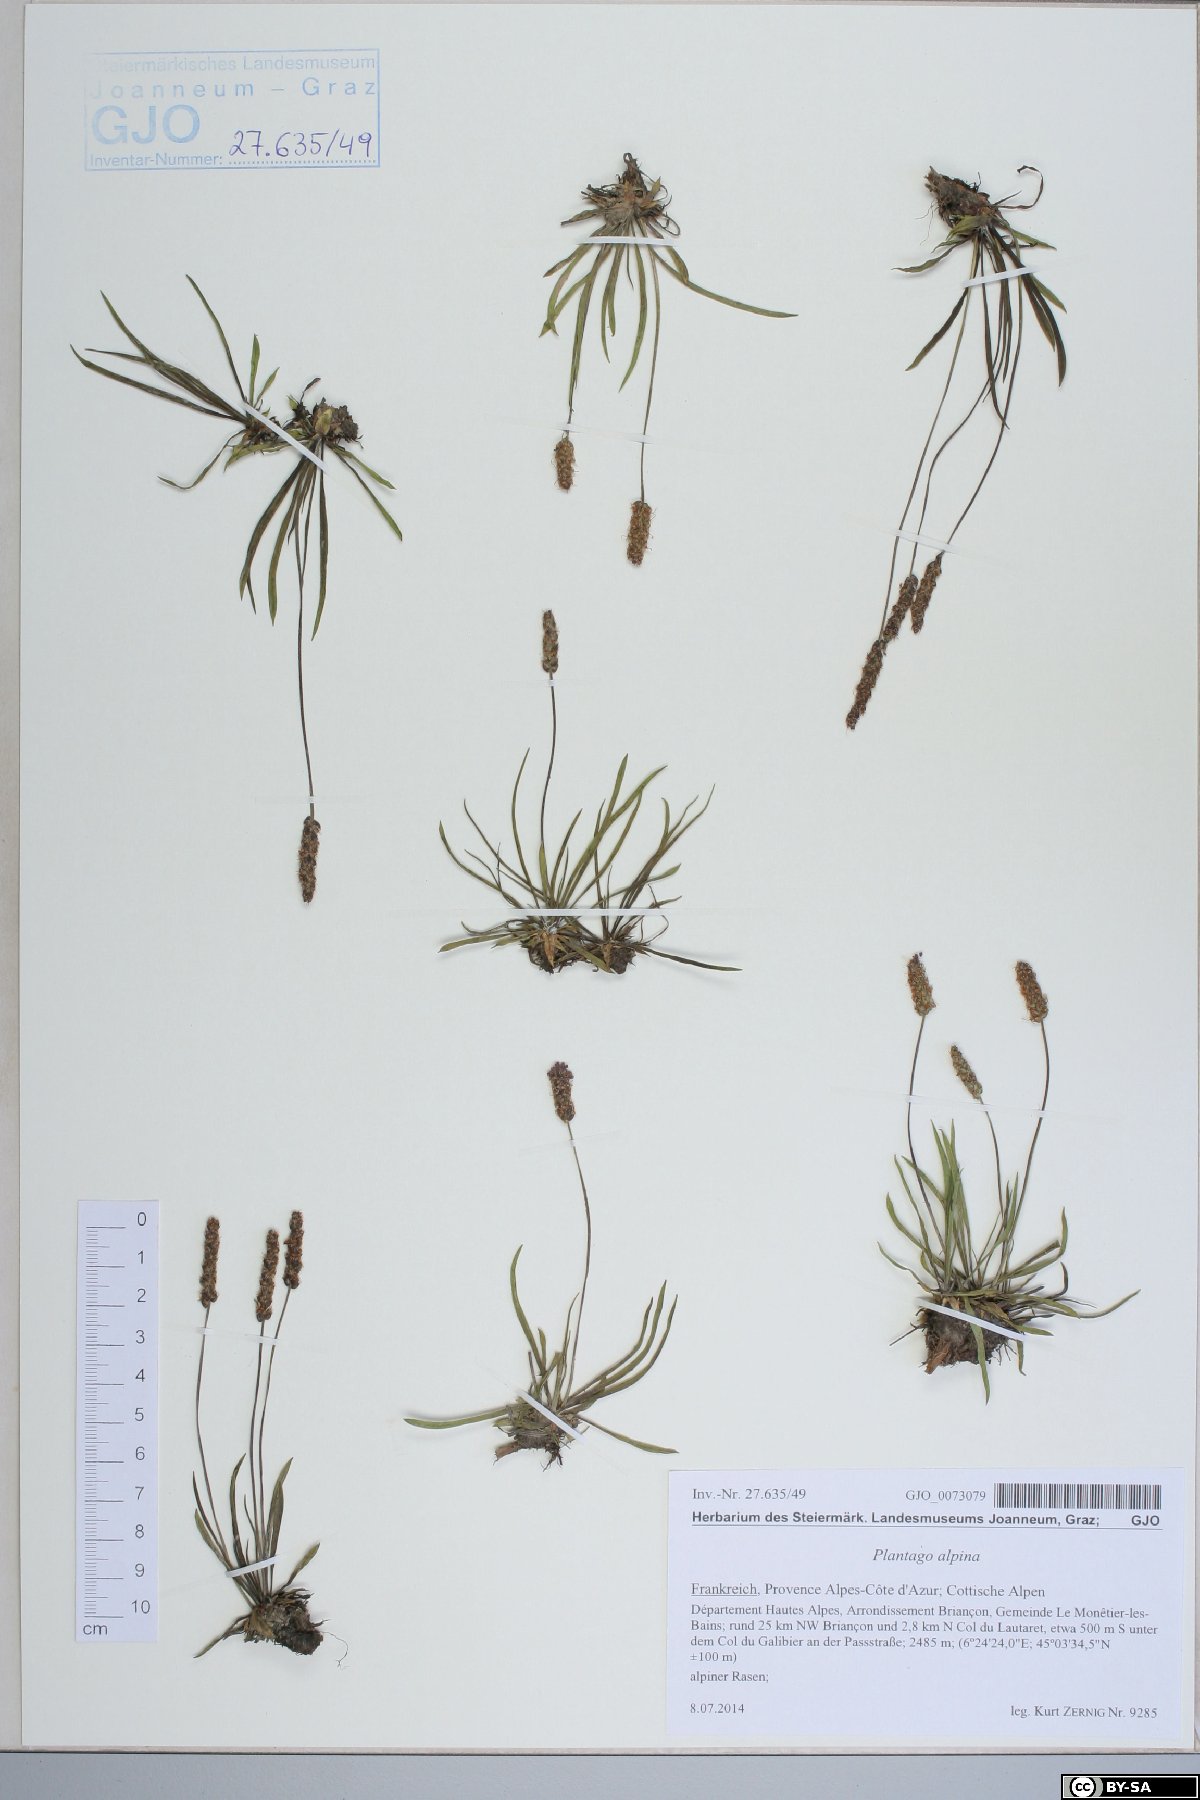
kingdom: Plantae
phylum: Tracheophyta
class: Magnoliopsida
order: Lamiales
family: Plantaginaceae
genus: Plantago
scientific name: Plantago alpina
